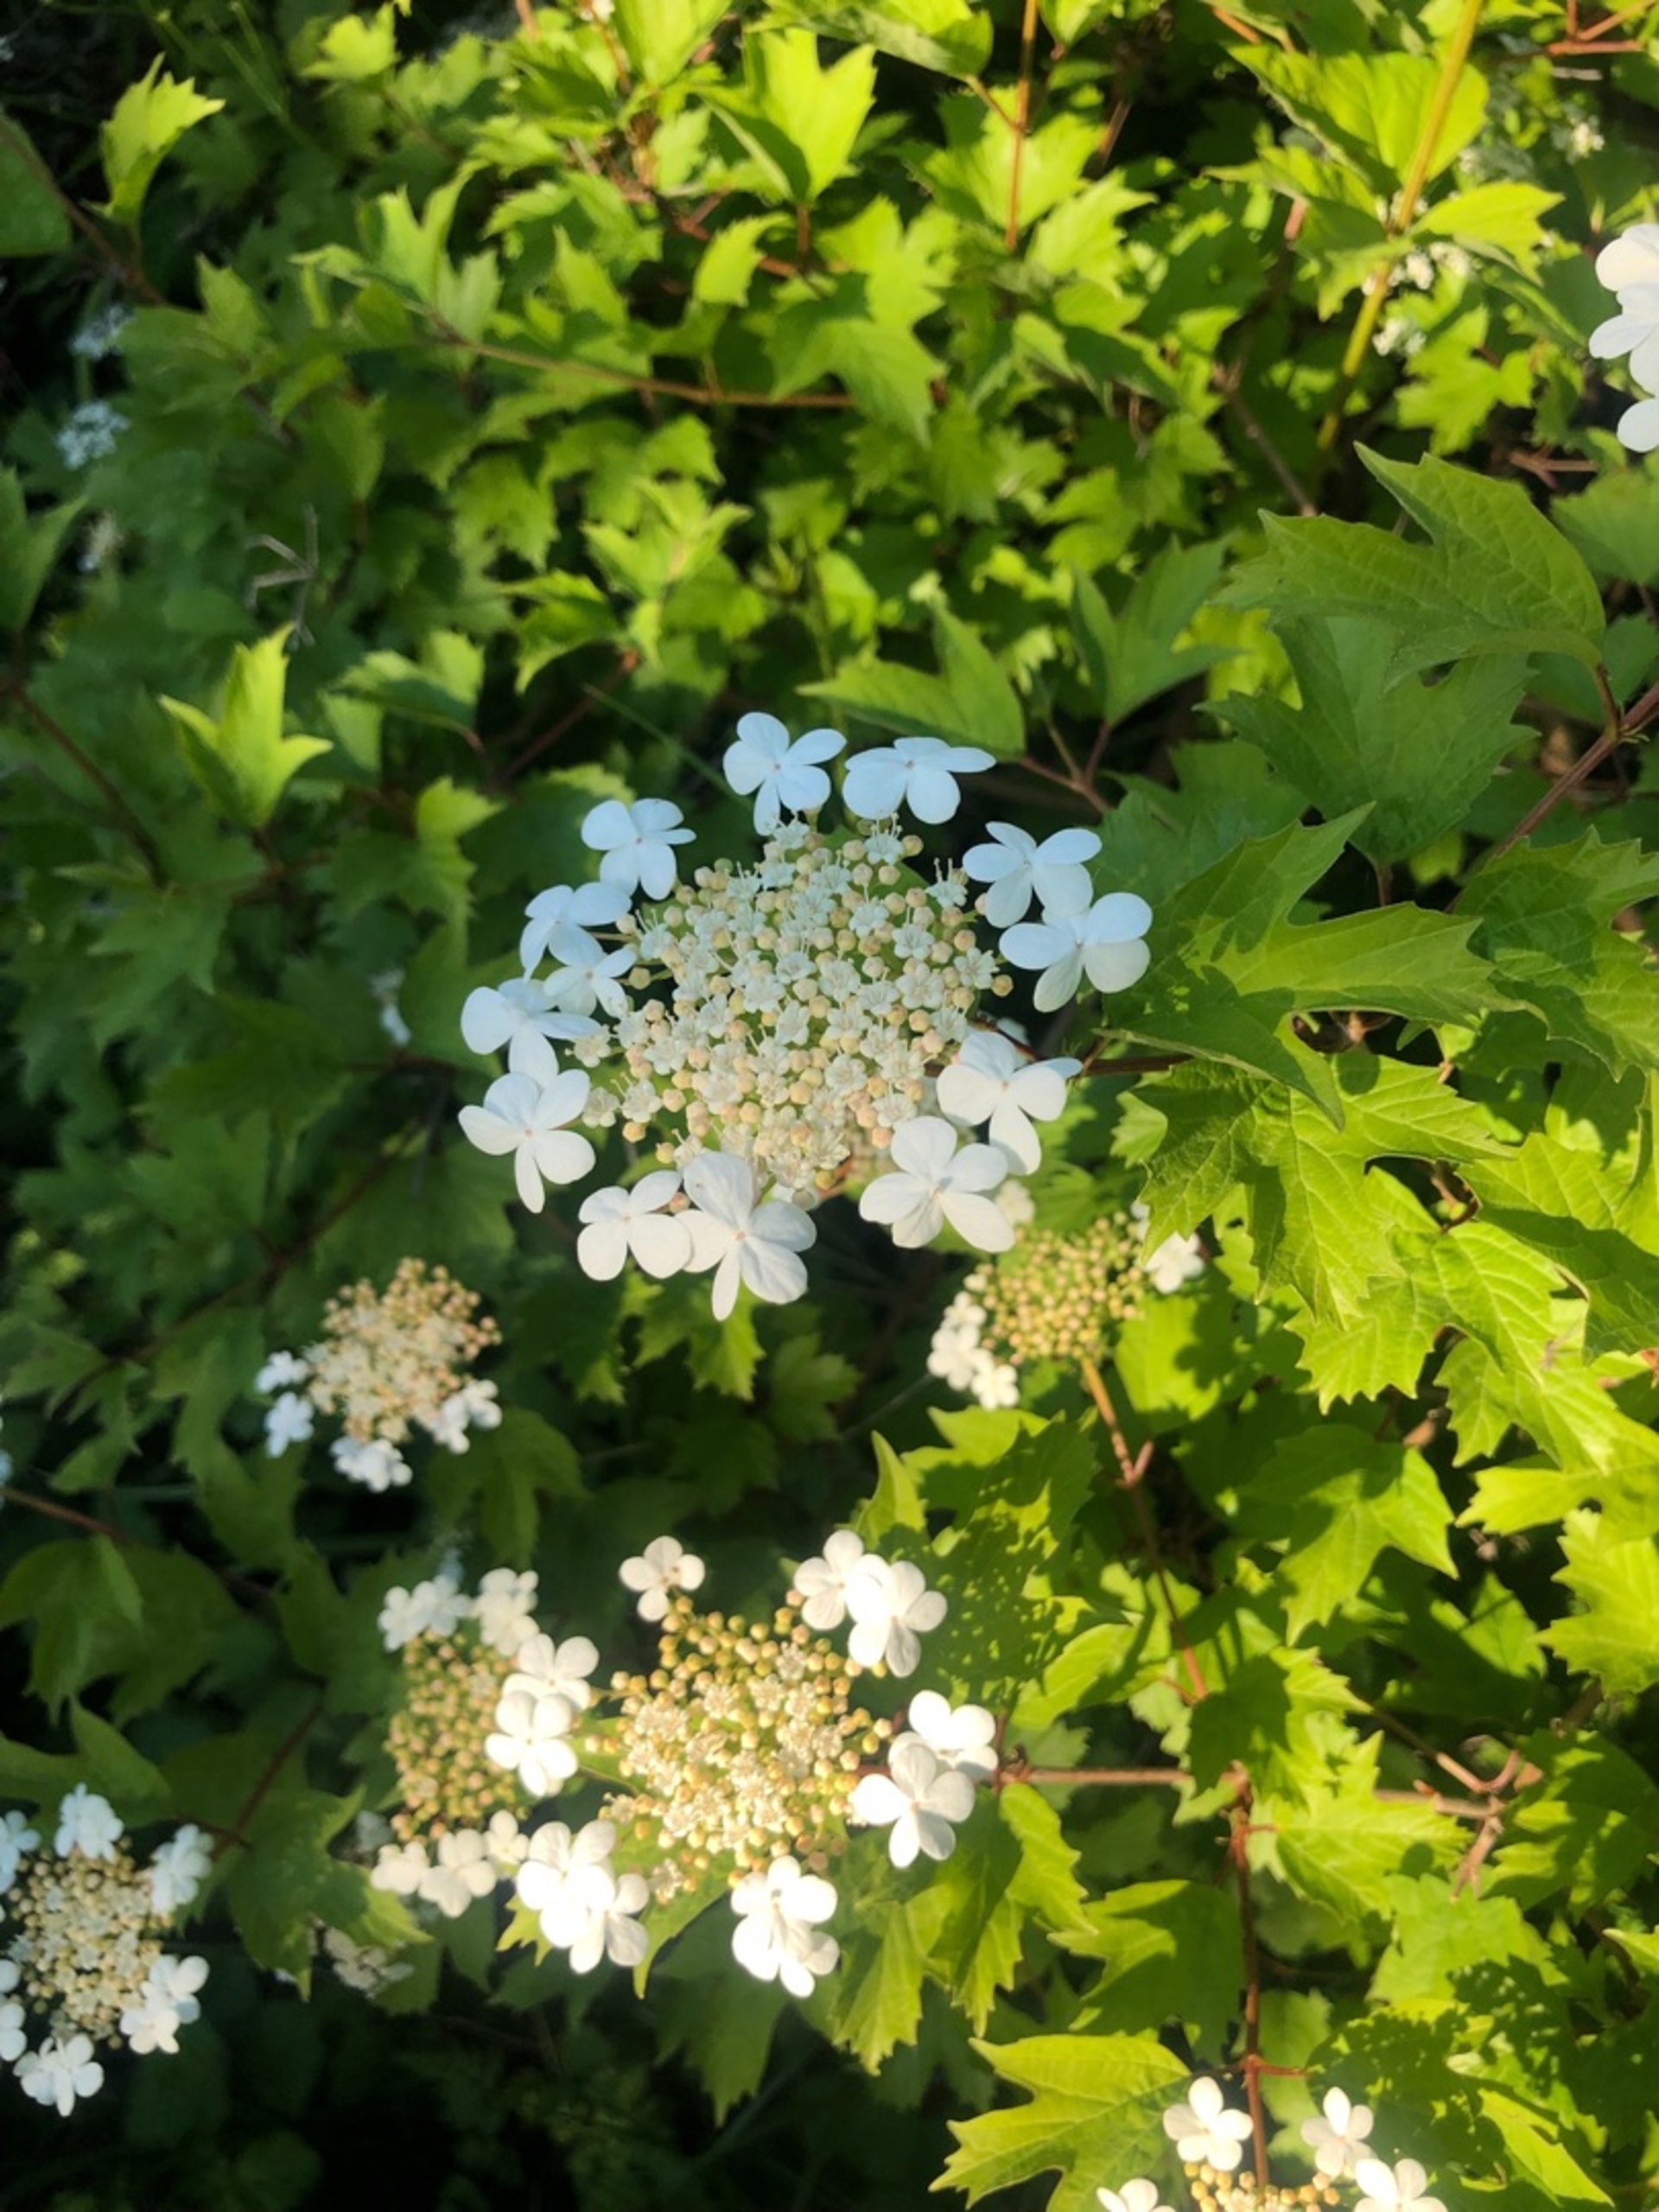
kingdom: Plantae
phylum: Tracheophyta
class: Magnoliopsida
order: Dipsacales
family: Viburnaceae
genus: Viburnum
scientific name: Viburnum opulus
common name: Kvalkved
